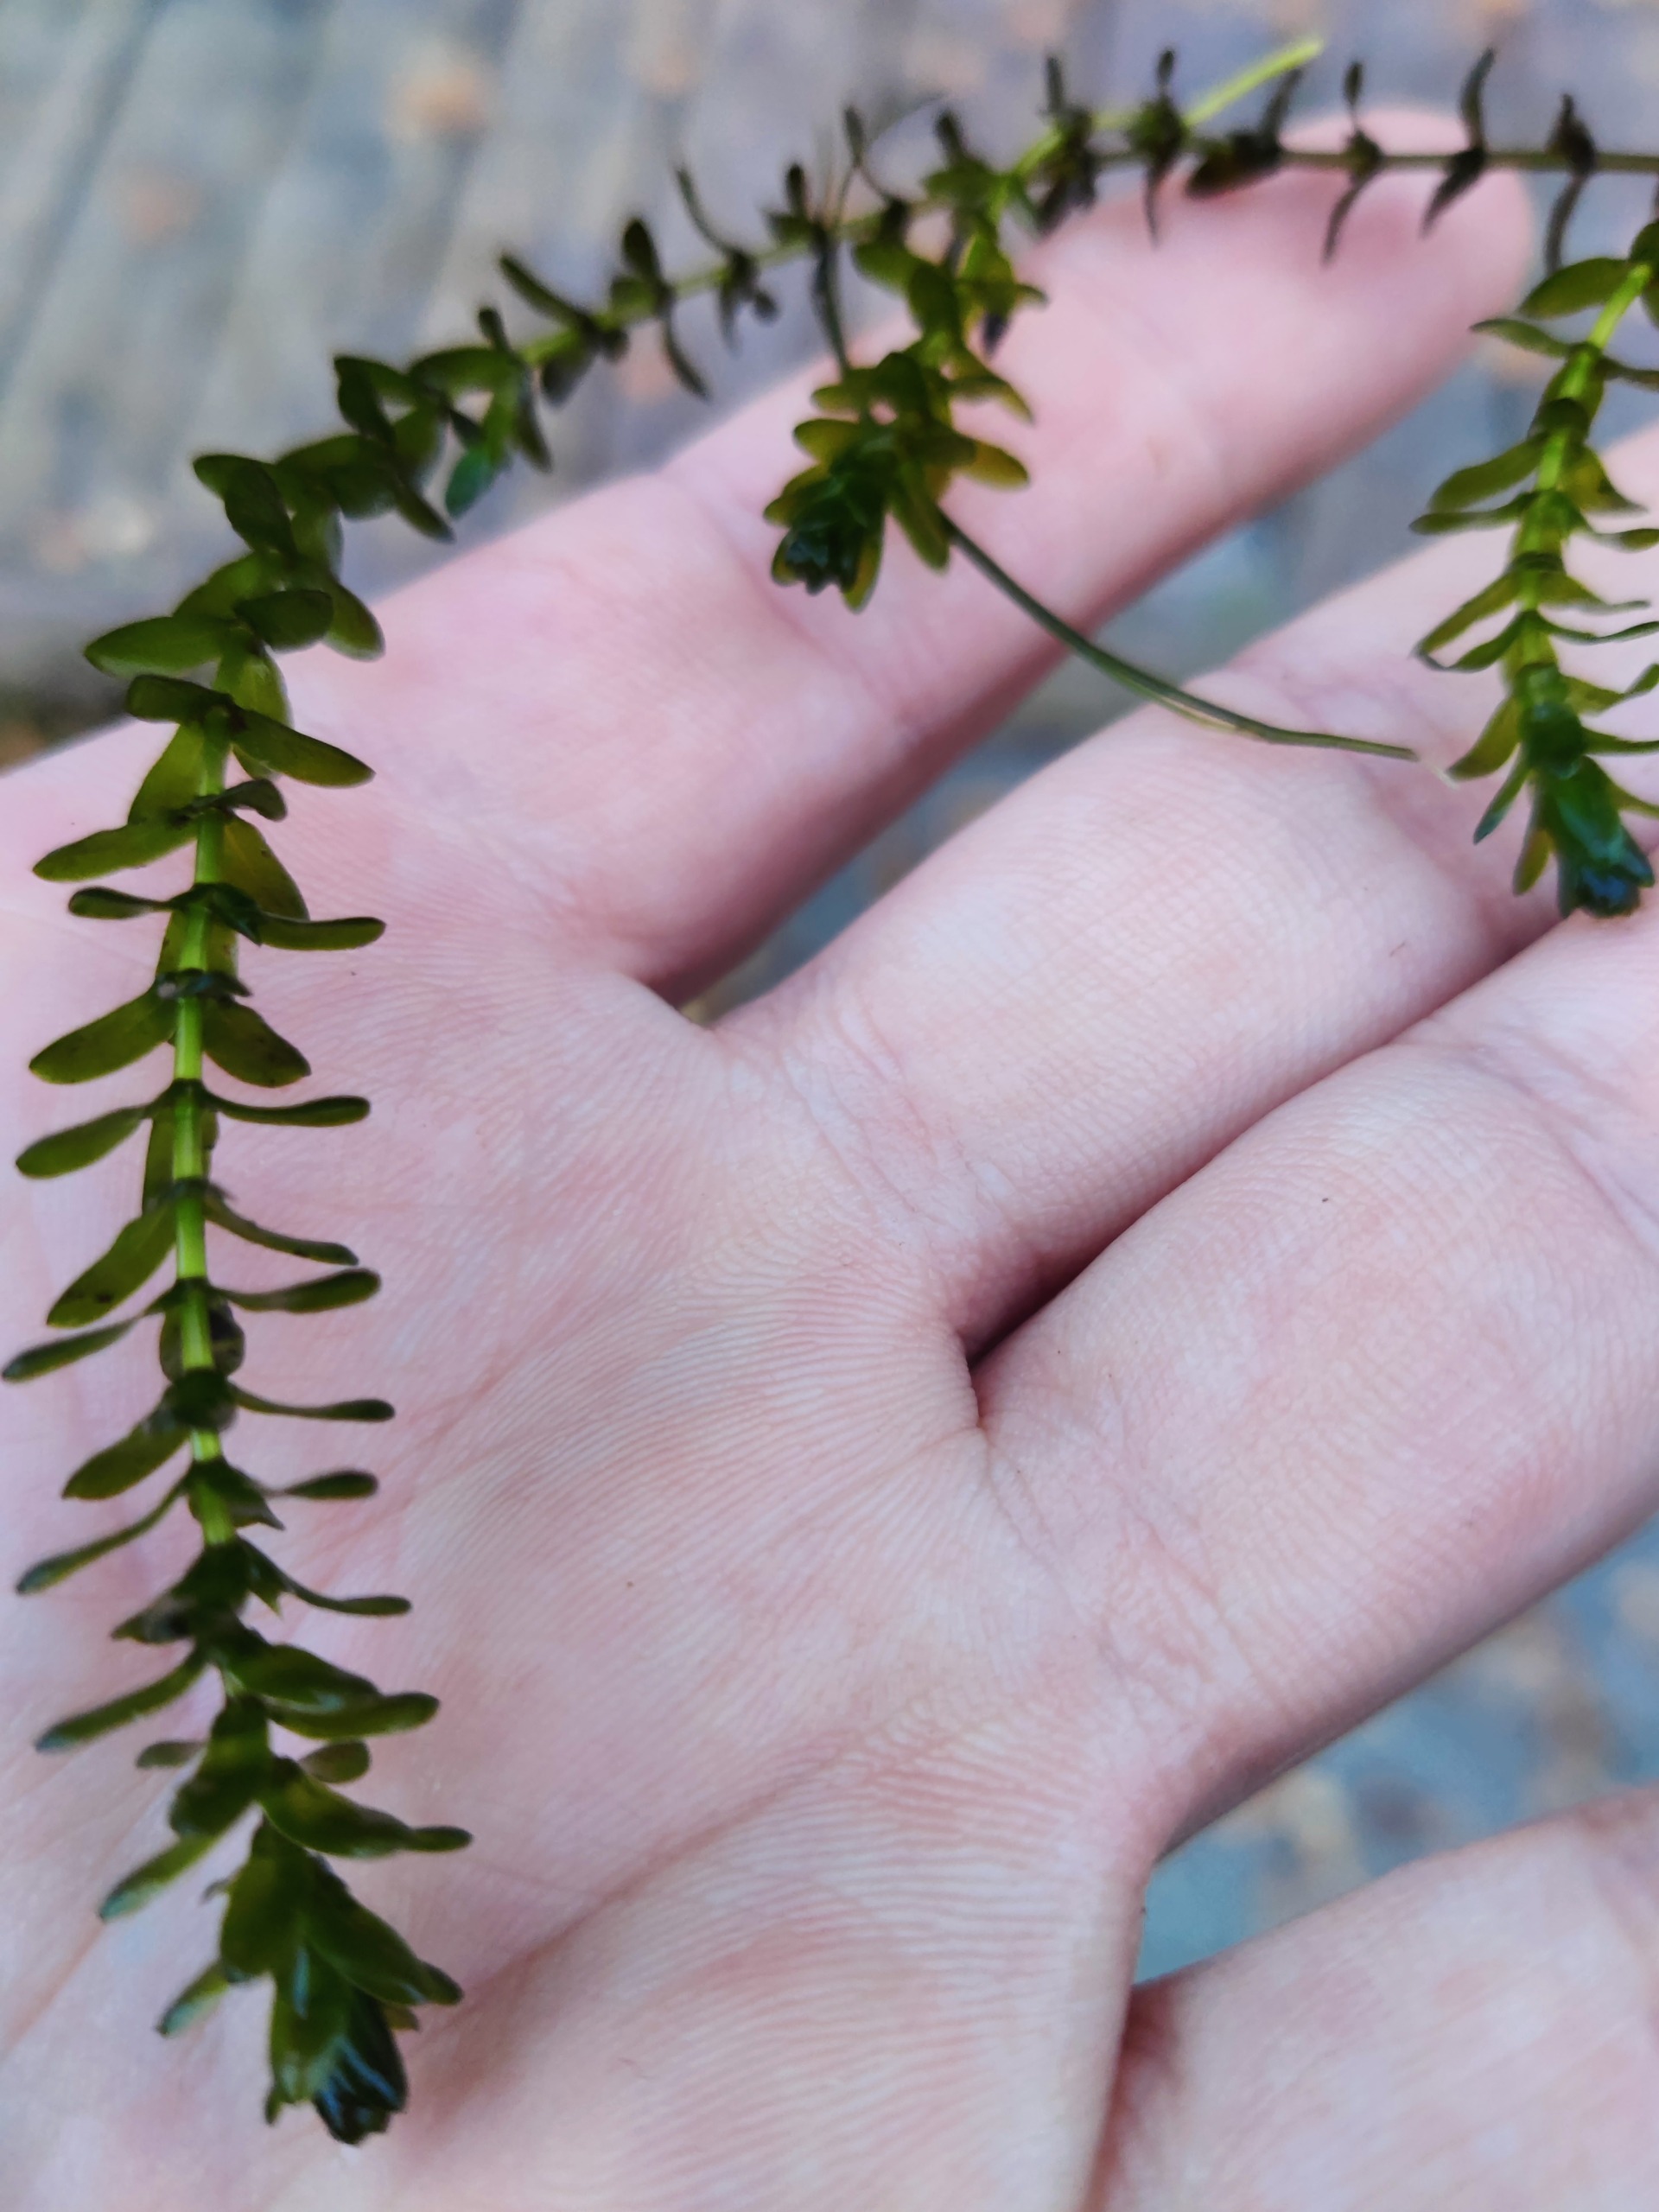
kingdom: Plantae
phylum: Tracheophyta
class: Liliopsida
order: Alismatales
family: Hydrocharitaceae
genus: Elodea
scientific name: Elodea canadensis
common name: Vandpest
